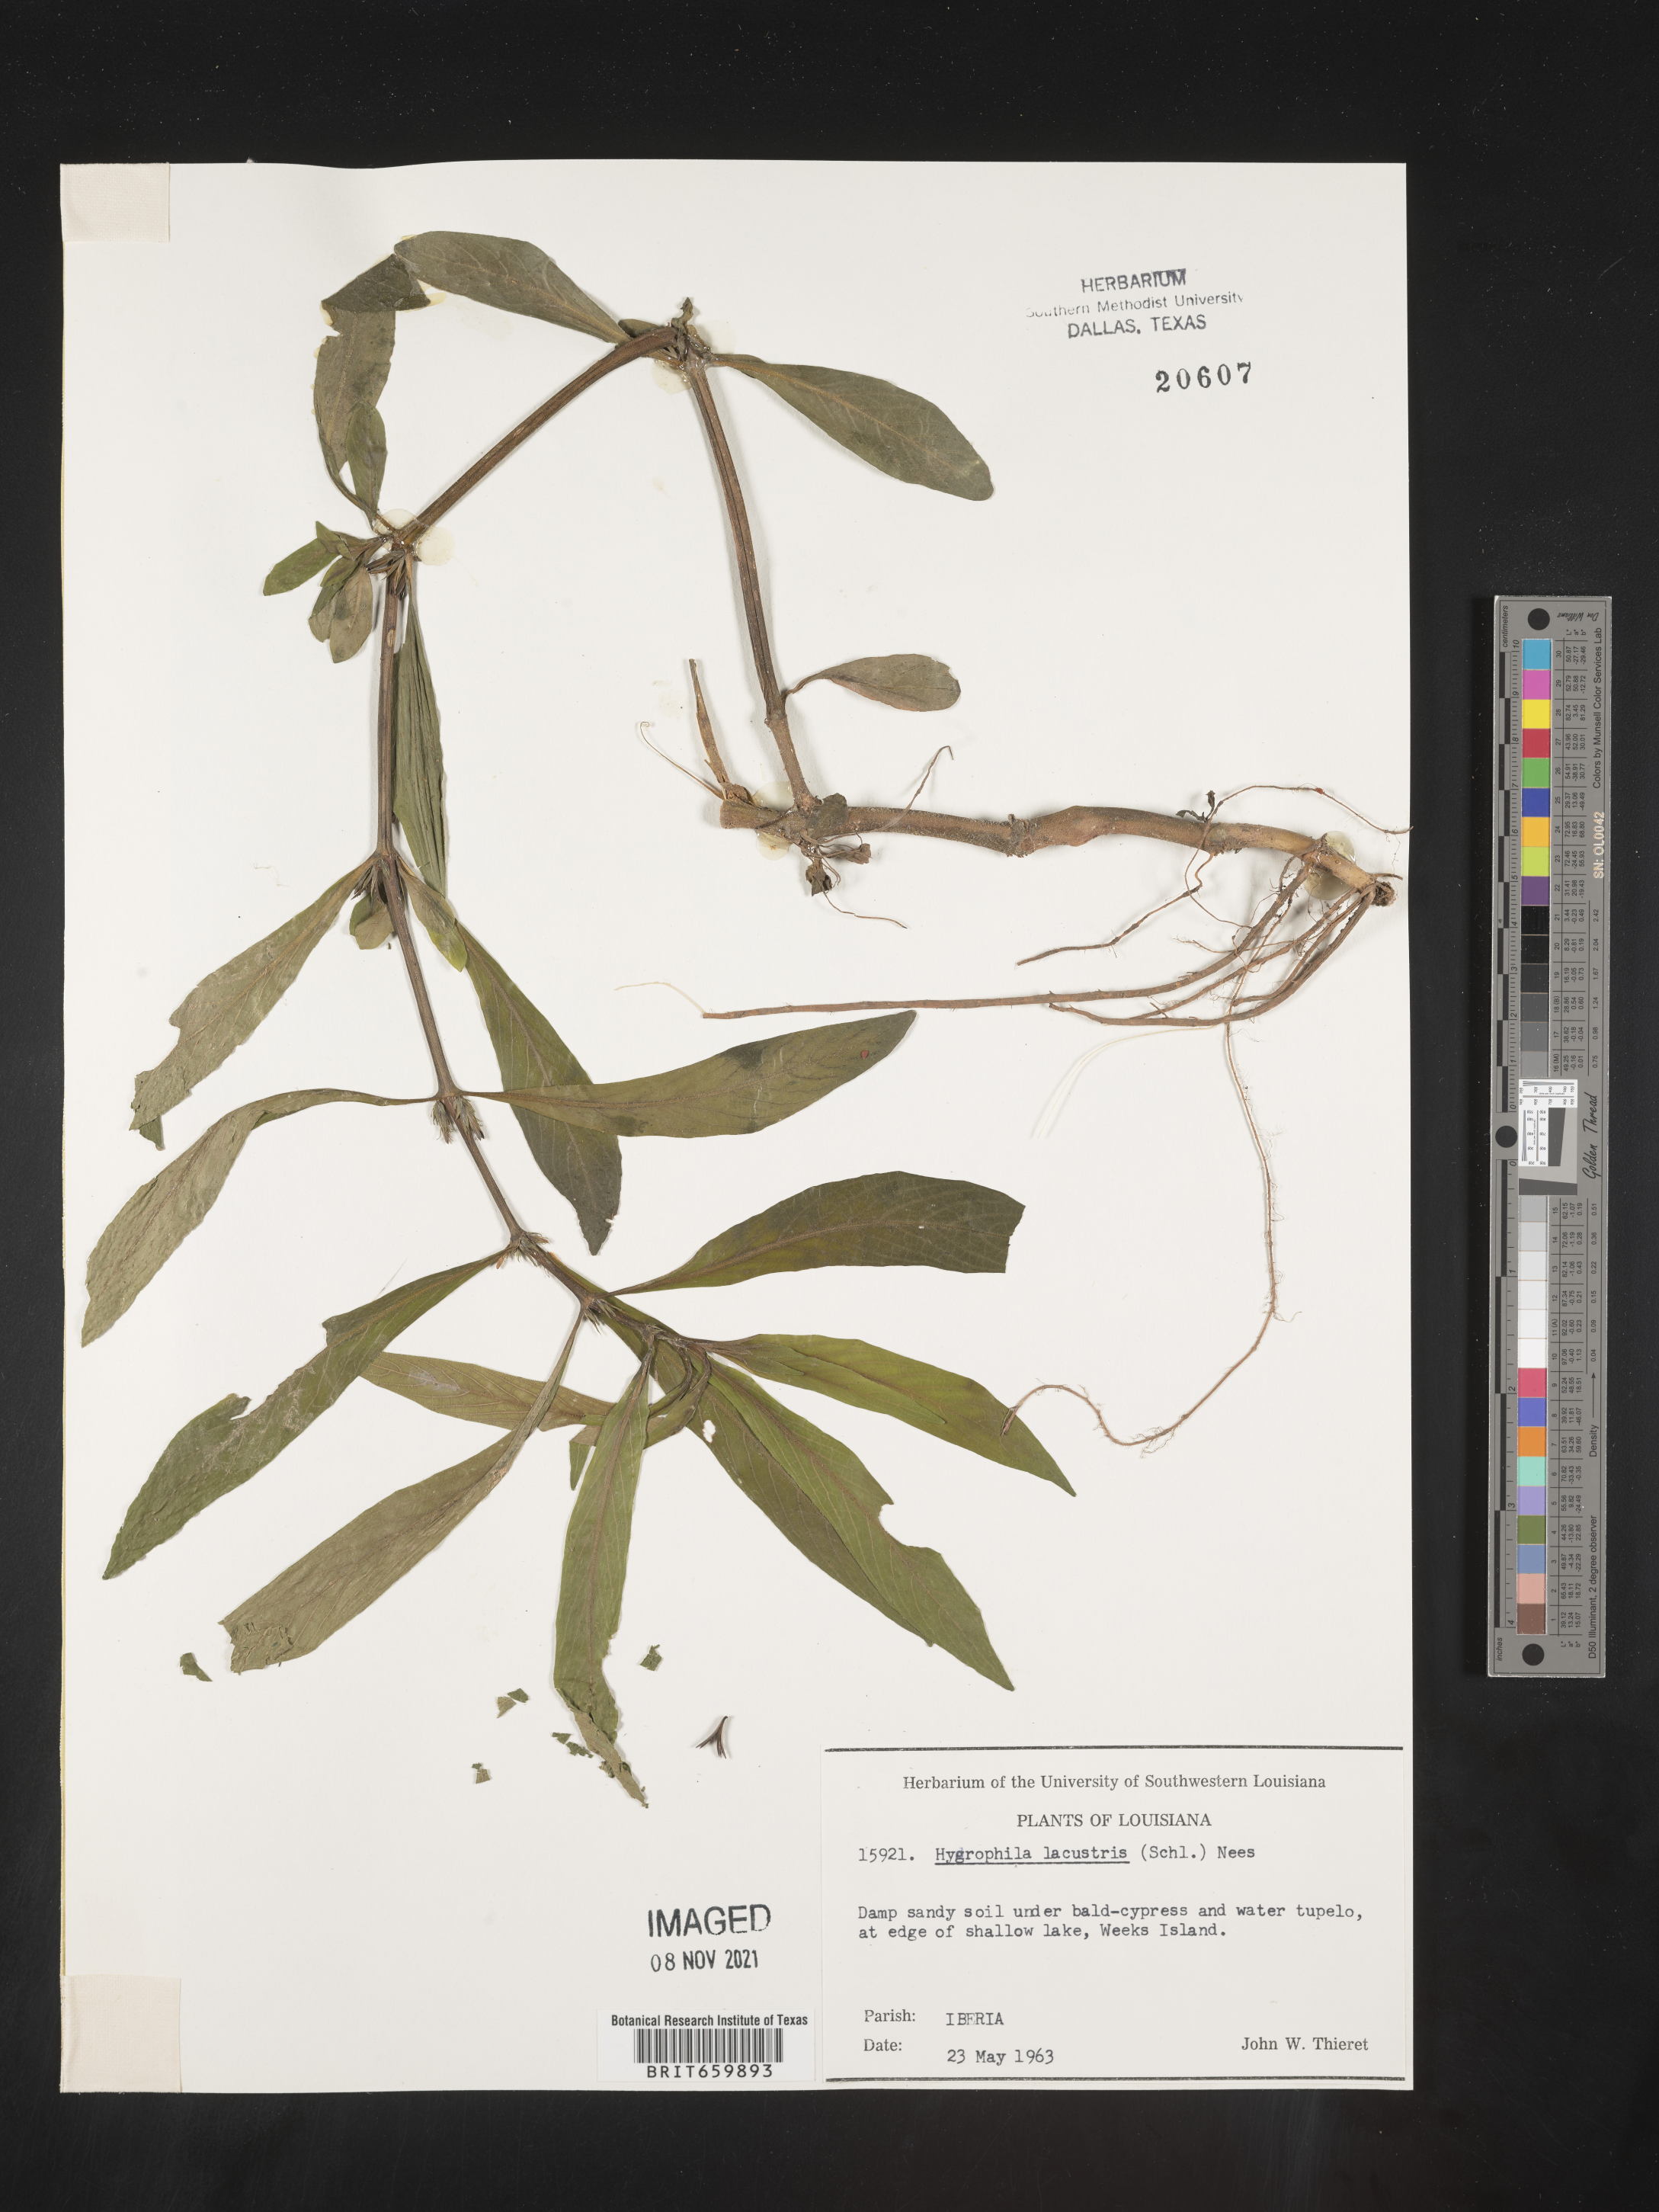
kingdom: Plantae
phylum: Tracheophyta
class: Magnoliopsida
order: Lamiales
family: Acanthaceae
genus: Hygrophila
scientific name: Hygrophila costata
